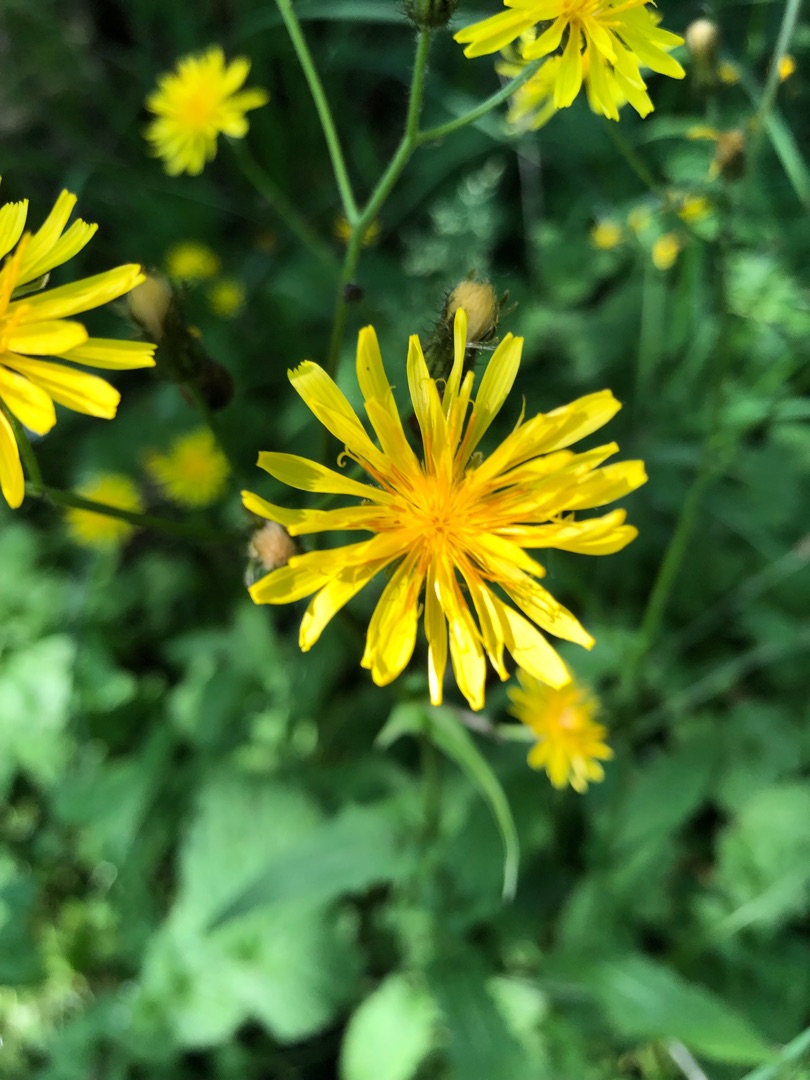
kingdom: Plantae
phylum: Tracheophyta
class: Magnoliopsida
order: Asterales
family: Asteraceae
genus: Crepis
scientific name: Crepis paludosa
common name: Kær-høgeskæg
